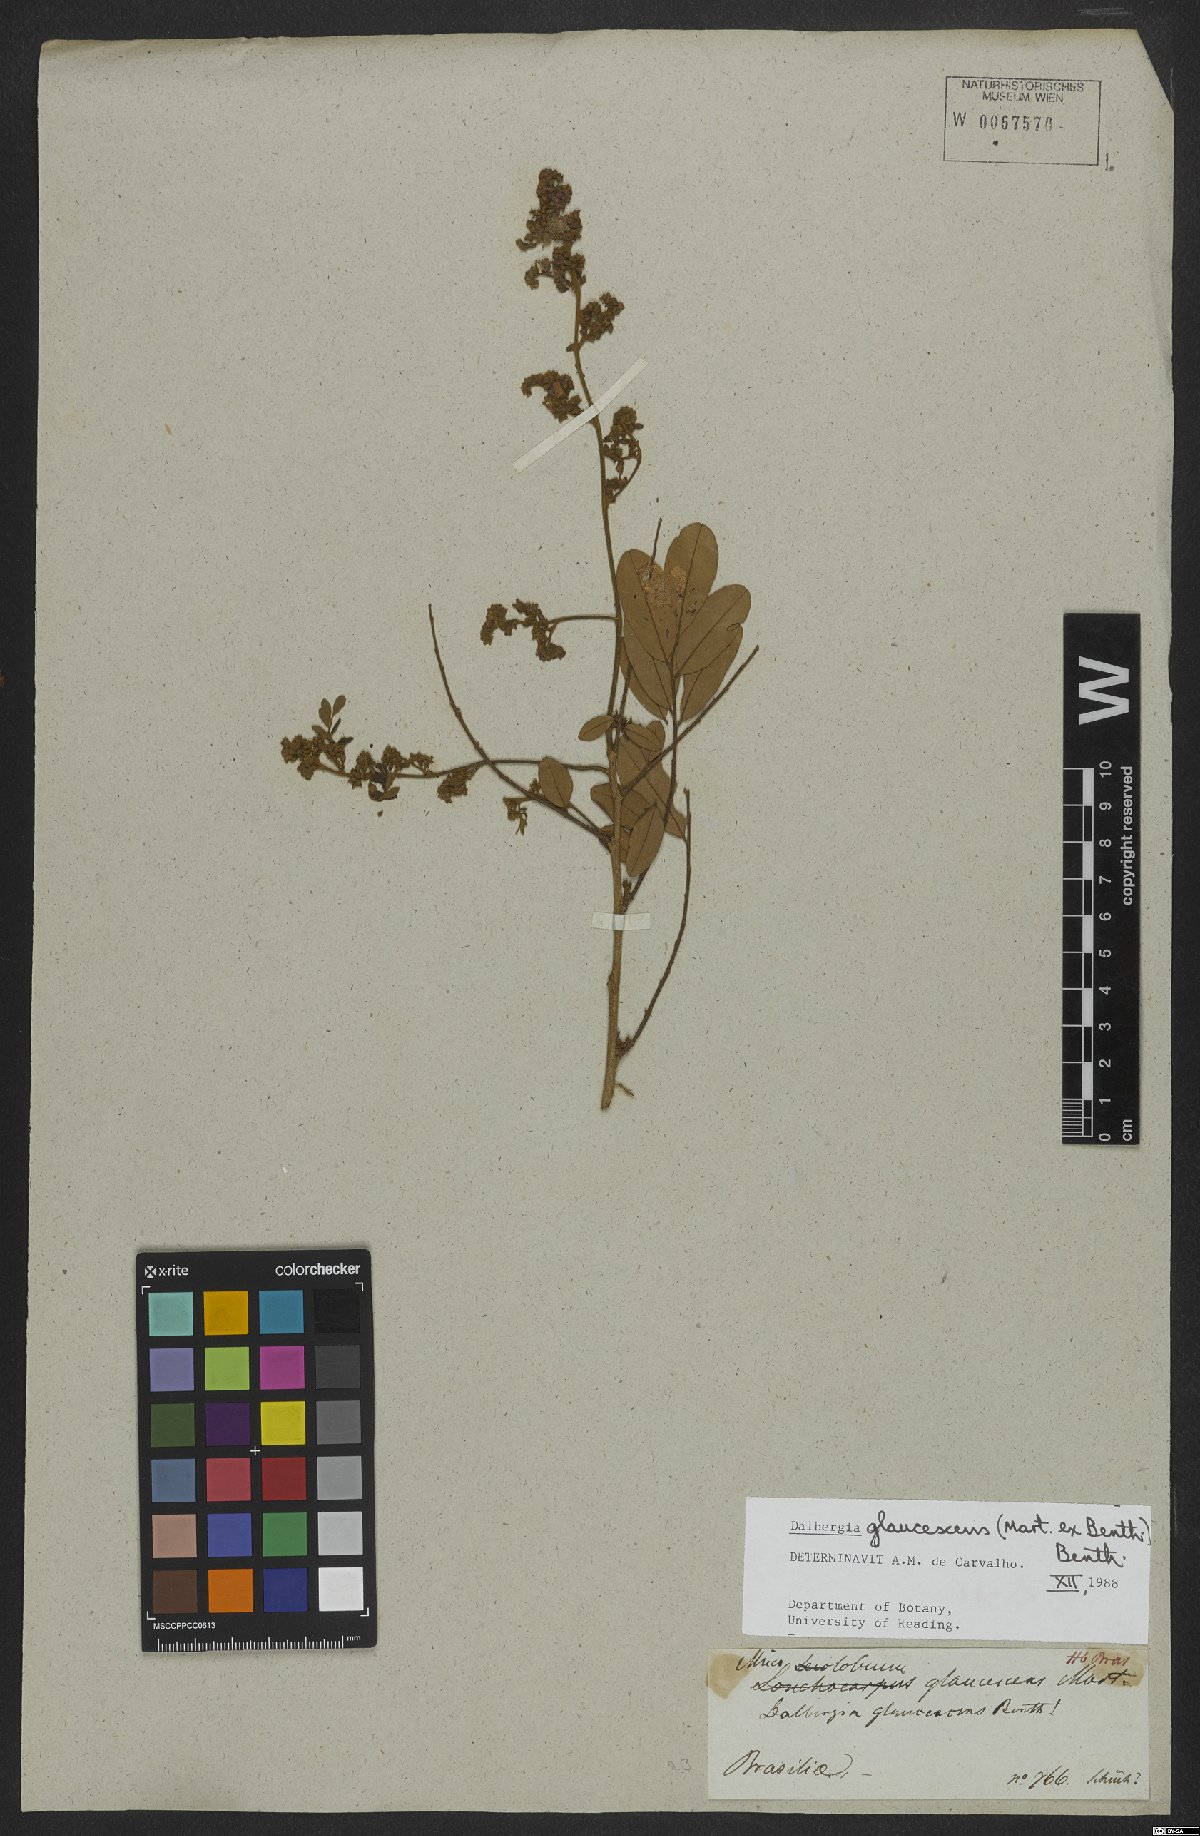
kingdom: Plantae
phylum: Tracheophyta
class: Magnoliopsida
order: Fabales
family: Fabaceae
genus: Dalbergia
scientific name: Dalbergia glaucescens
